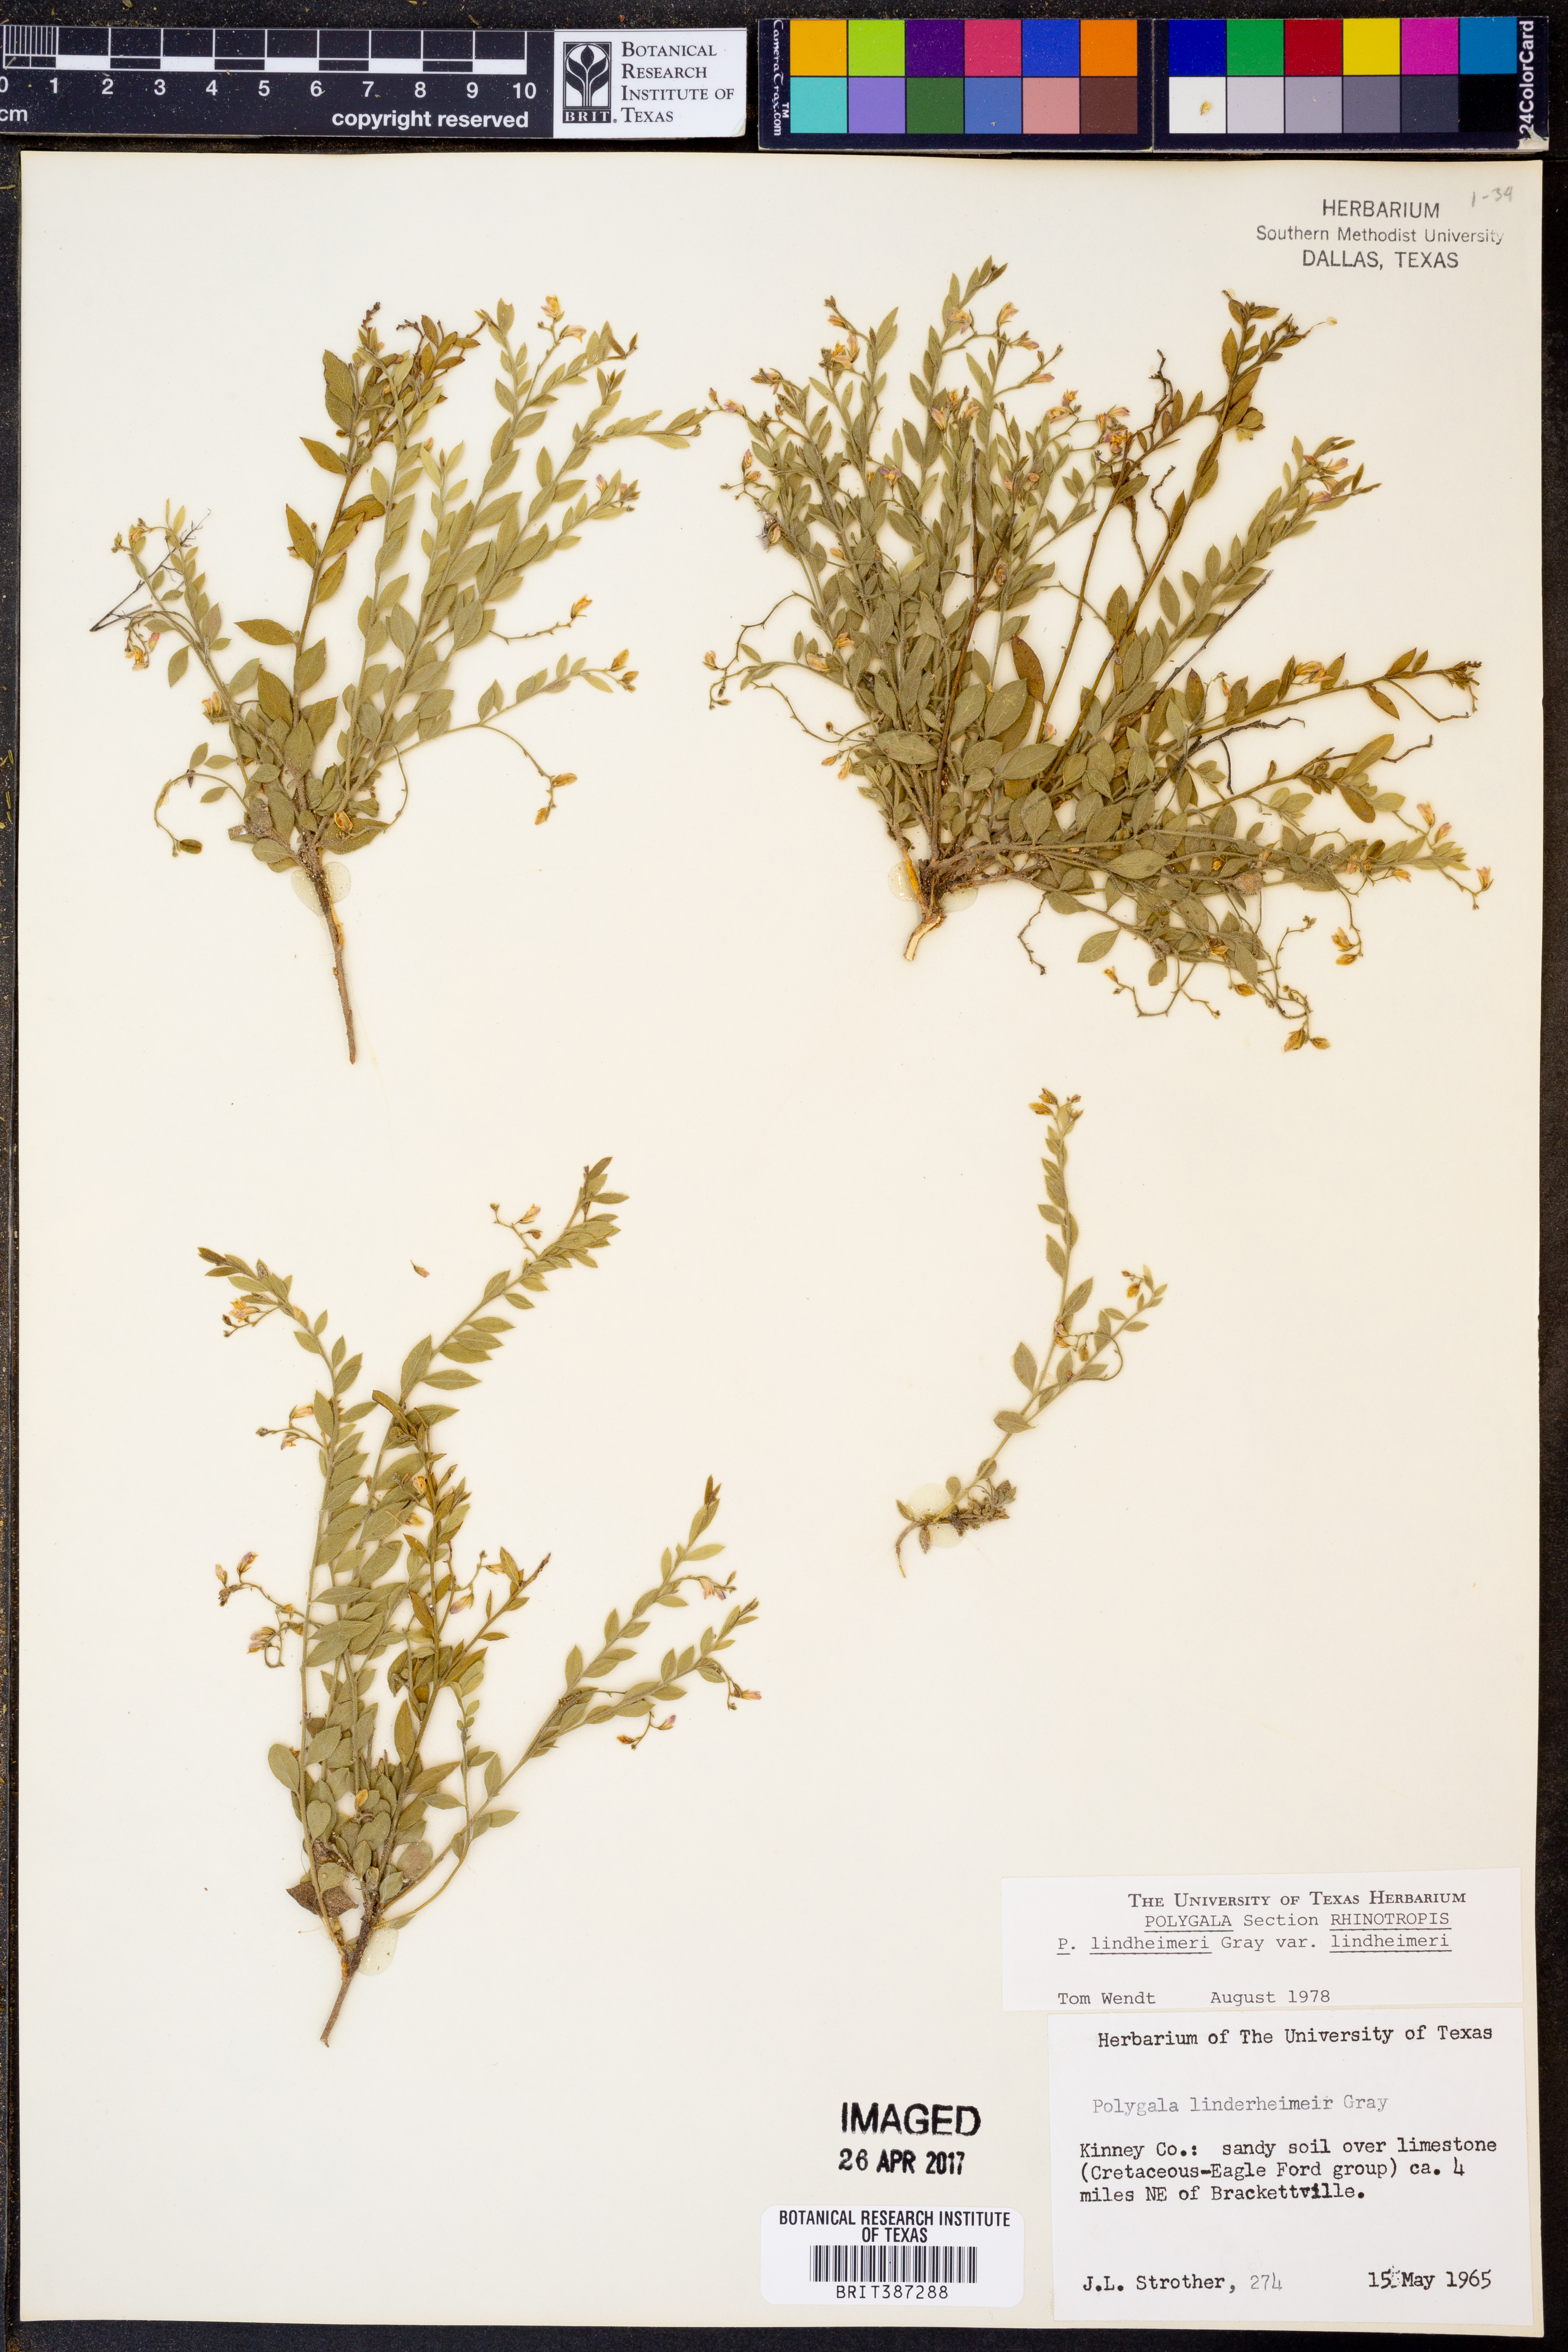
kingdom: Plantae
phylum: Tracheophyta
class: Magnoliopsida
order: Fabales
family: Polygalaceae
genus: Rhinotropis
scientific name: Rhinotropis lindheimeri
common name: Shrubby milkwort
